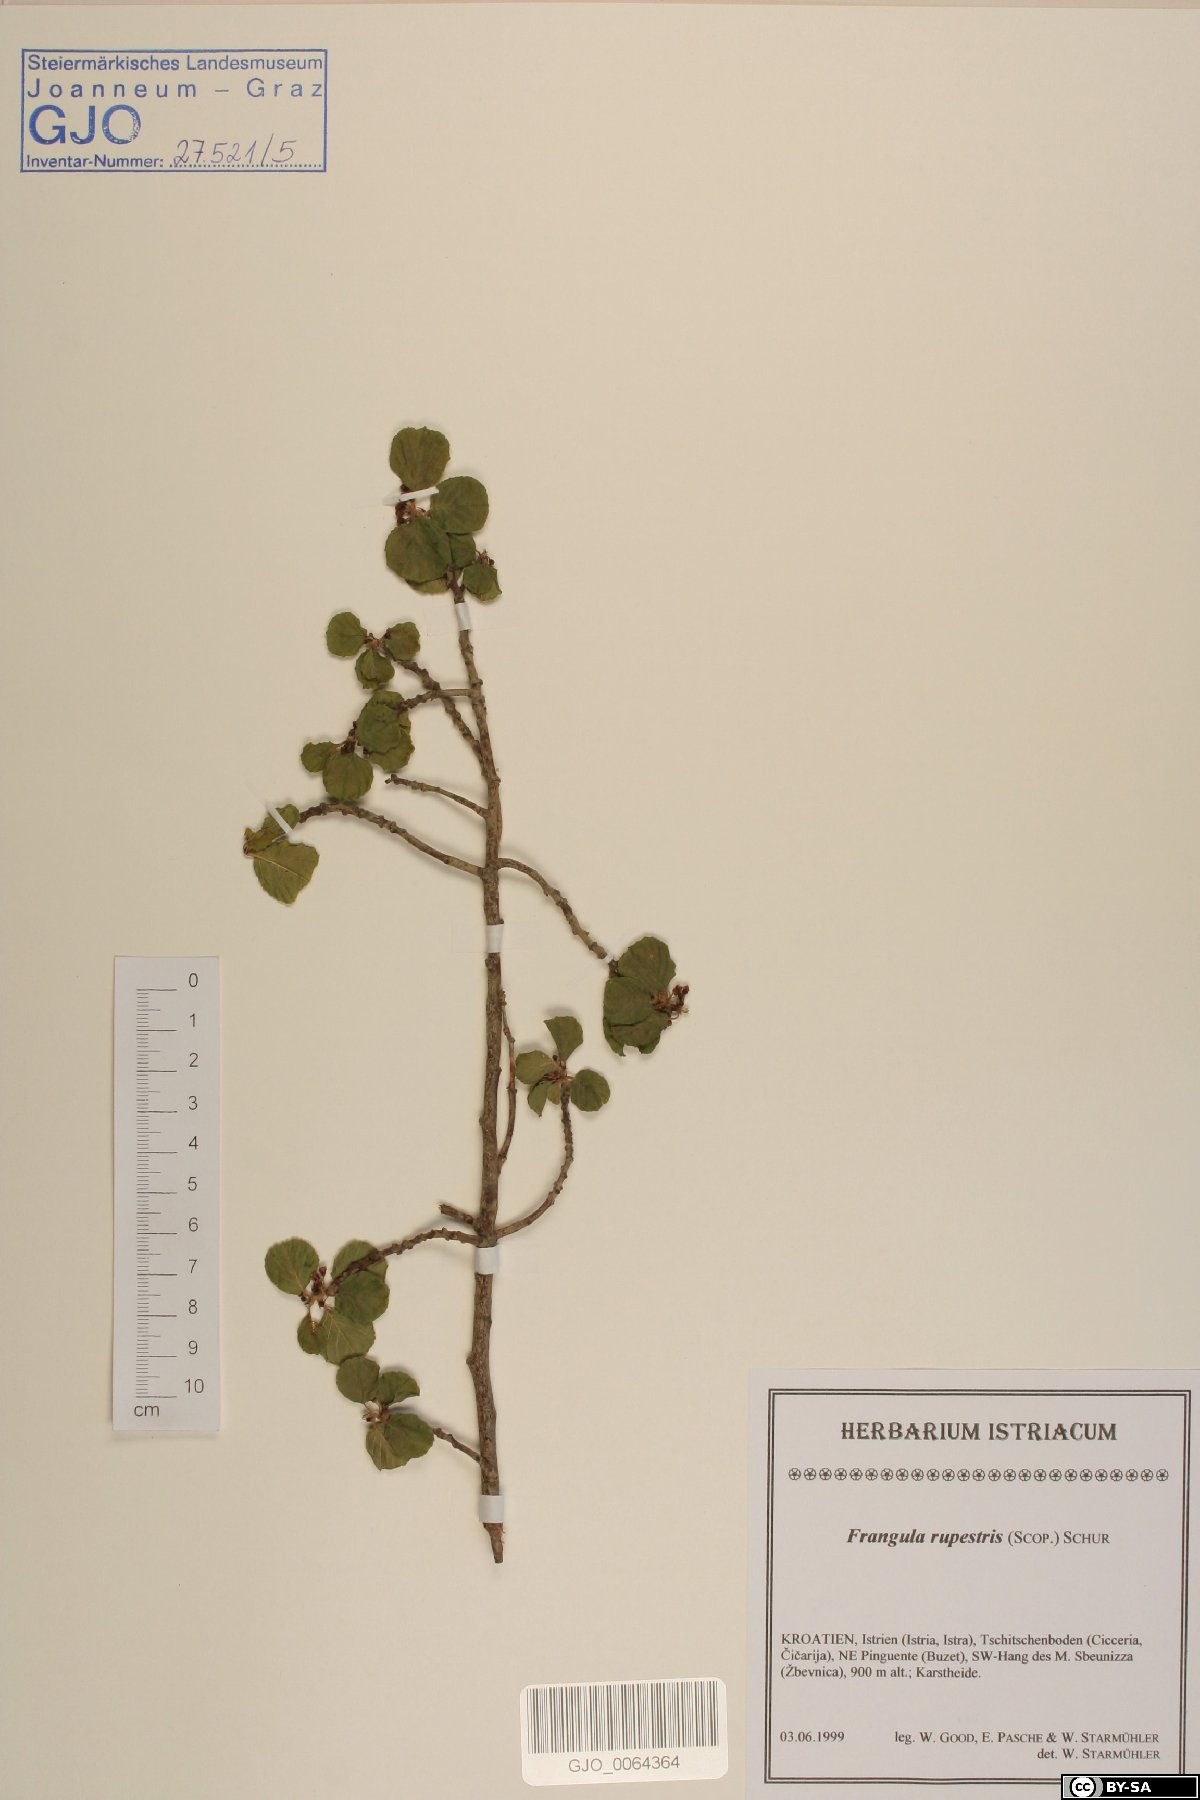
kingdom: Plantae
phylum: Tracheophyta
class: Magnoliopsida
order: Rosales
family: Rhamnaceae
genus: Frangula
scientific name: Frangula rupestris
